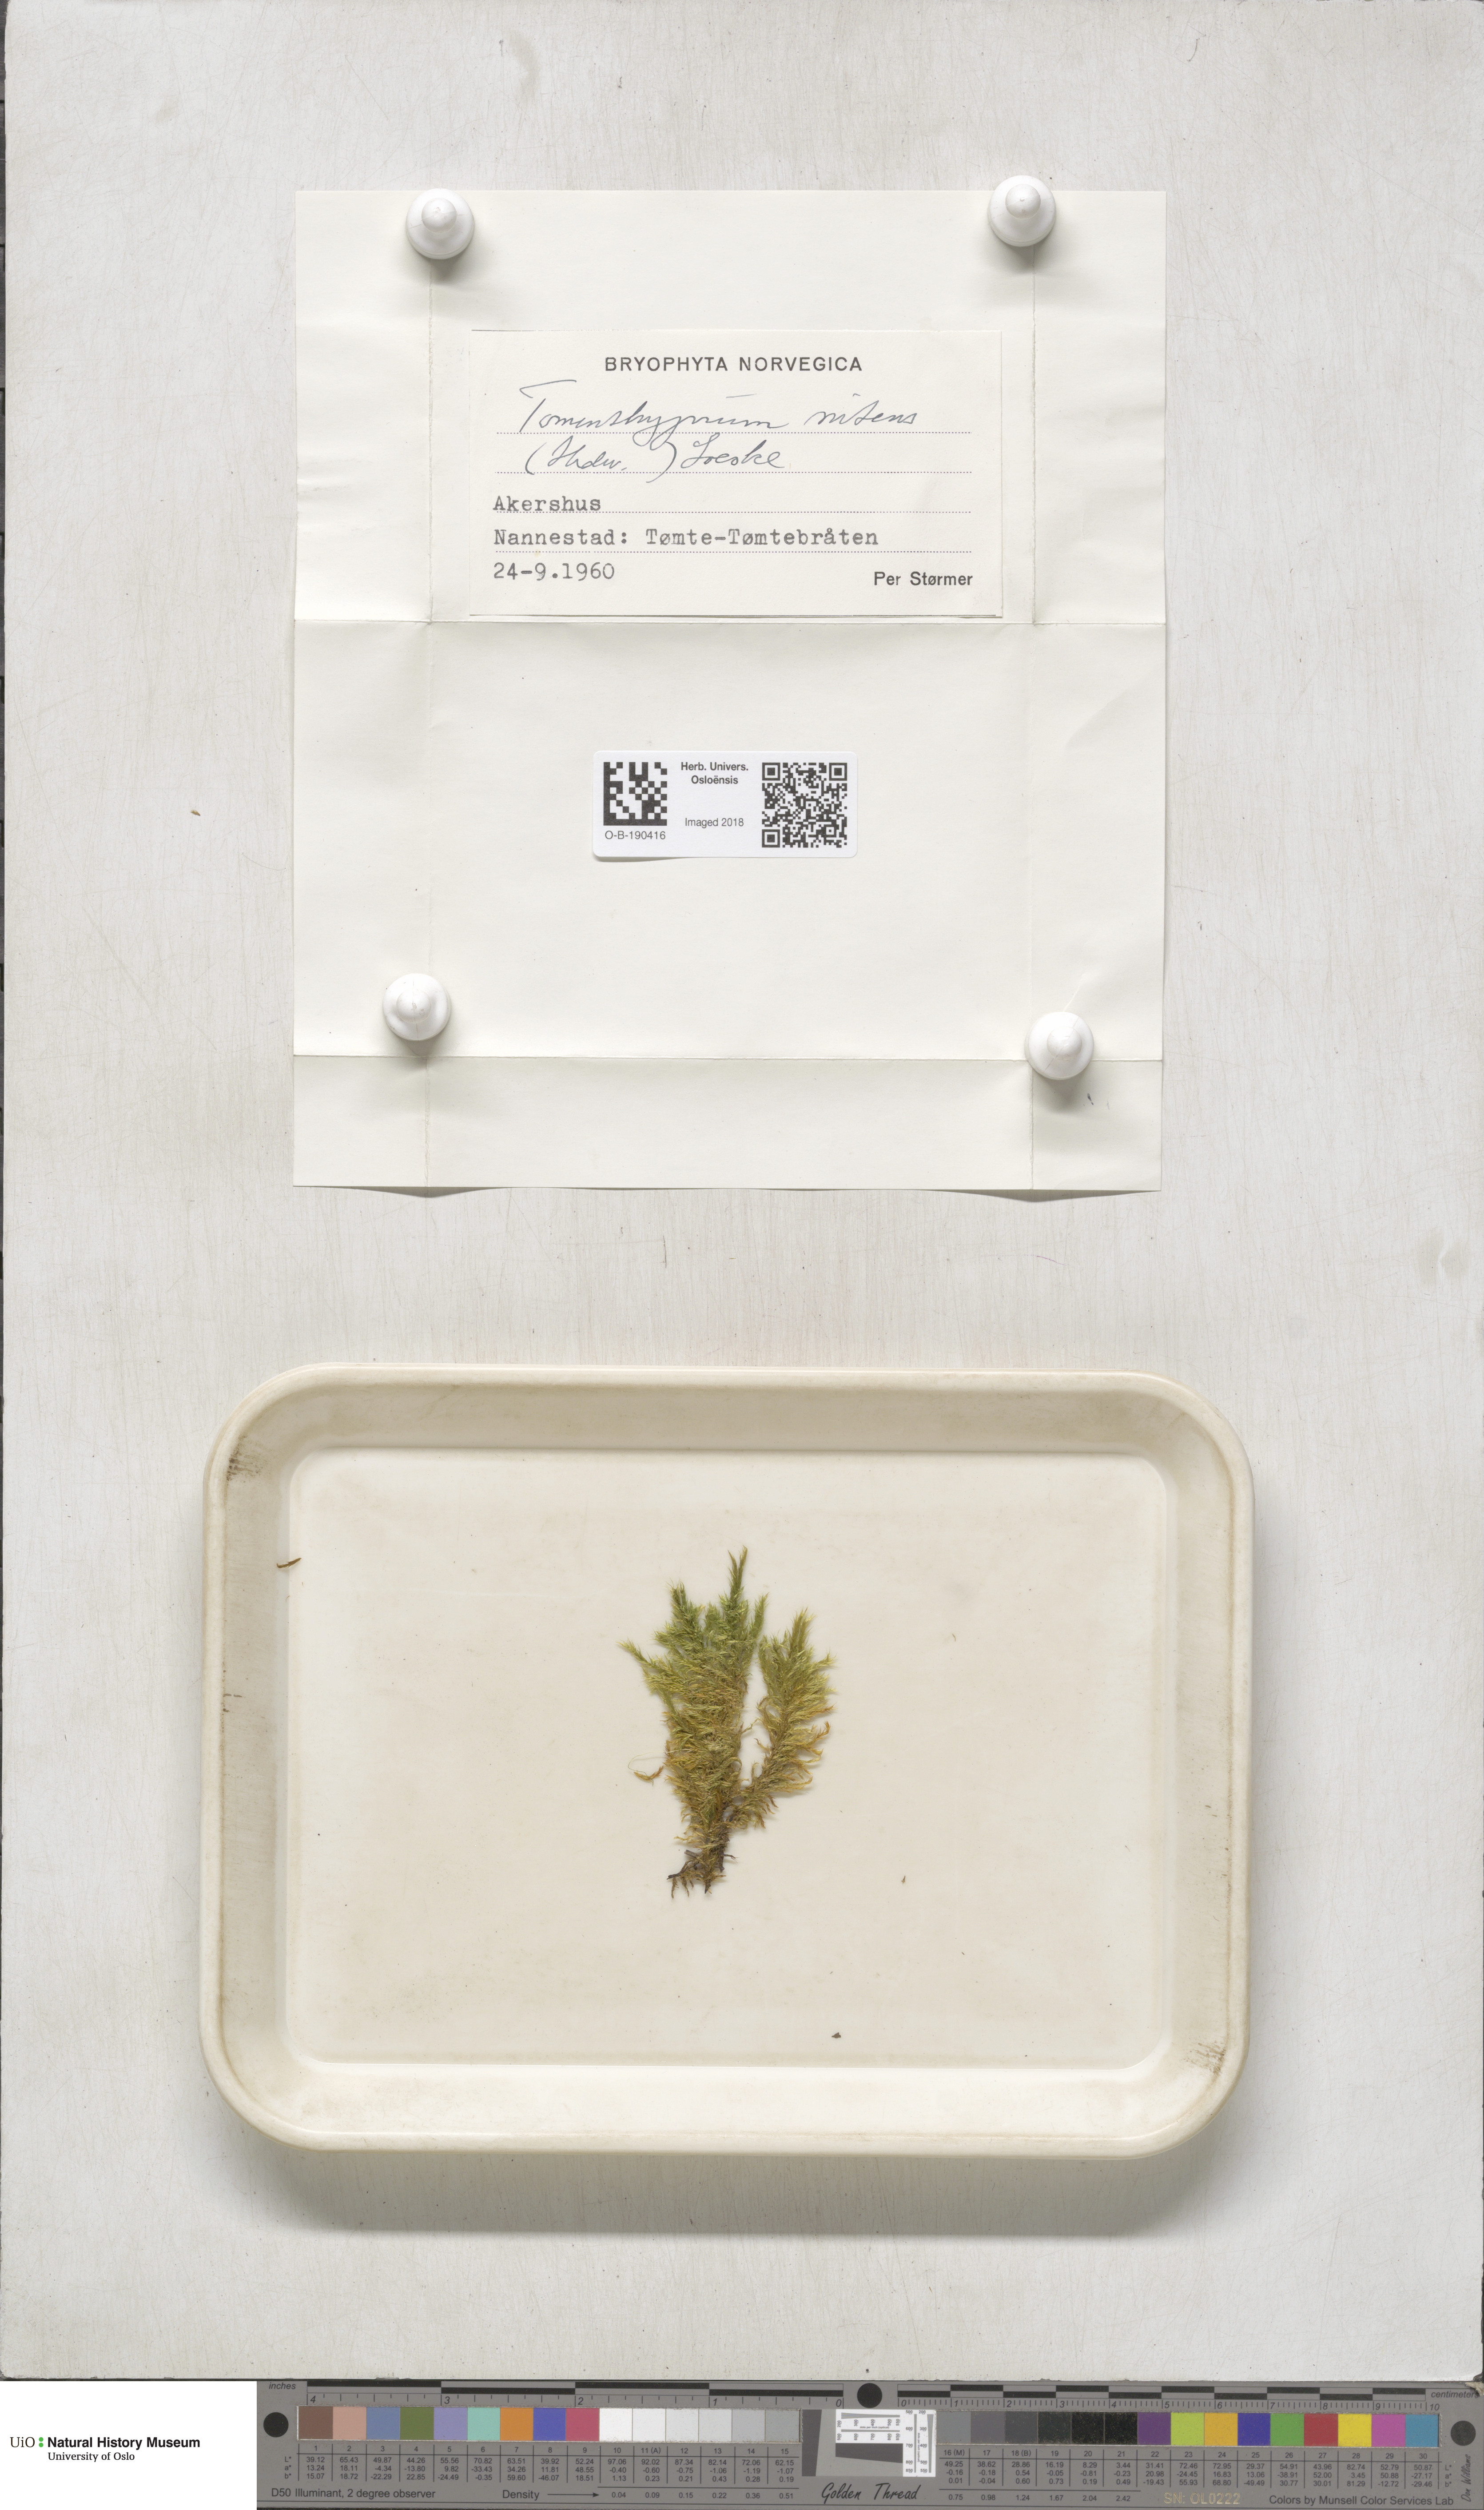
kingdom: Plantae
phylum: Bryophyta
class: Bryopsida
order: Hypnales
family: Amblystegiaceae
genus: Tomentypnum
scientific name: Tomentypnum nitens
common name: Golden fuzzy fen moss
